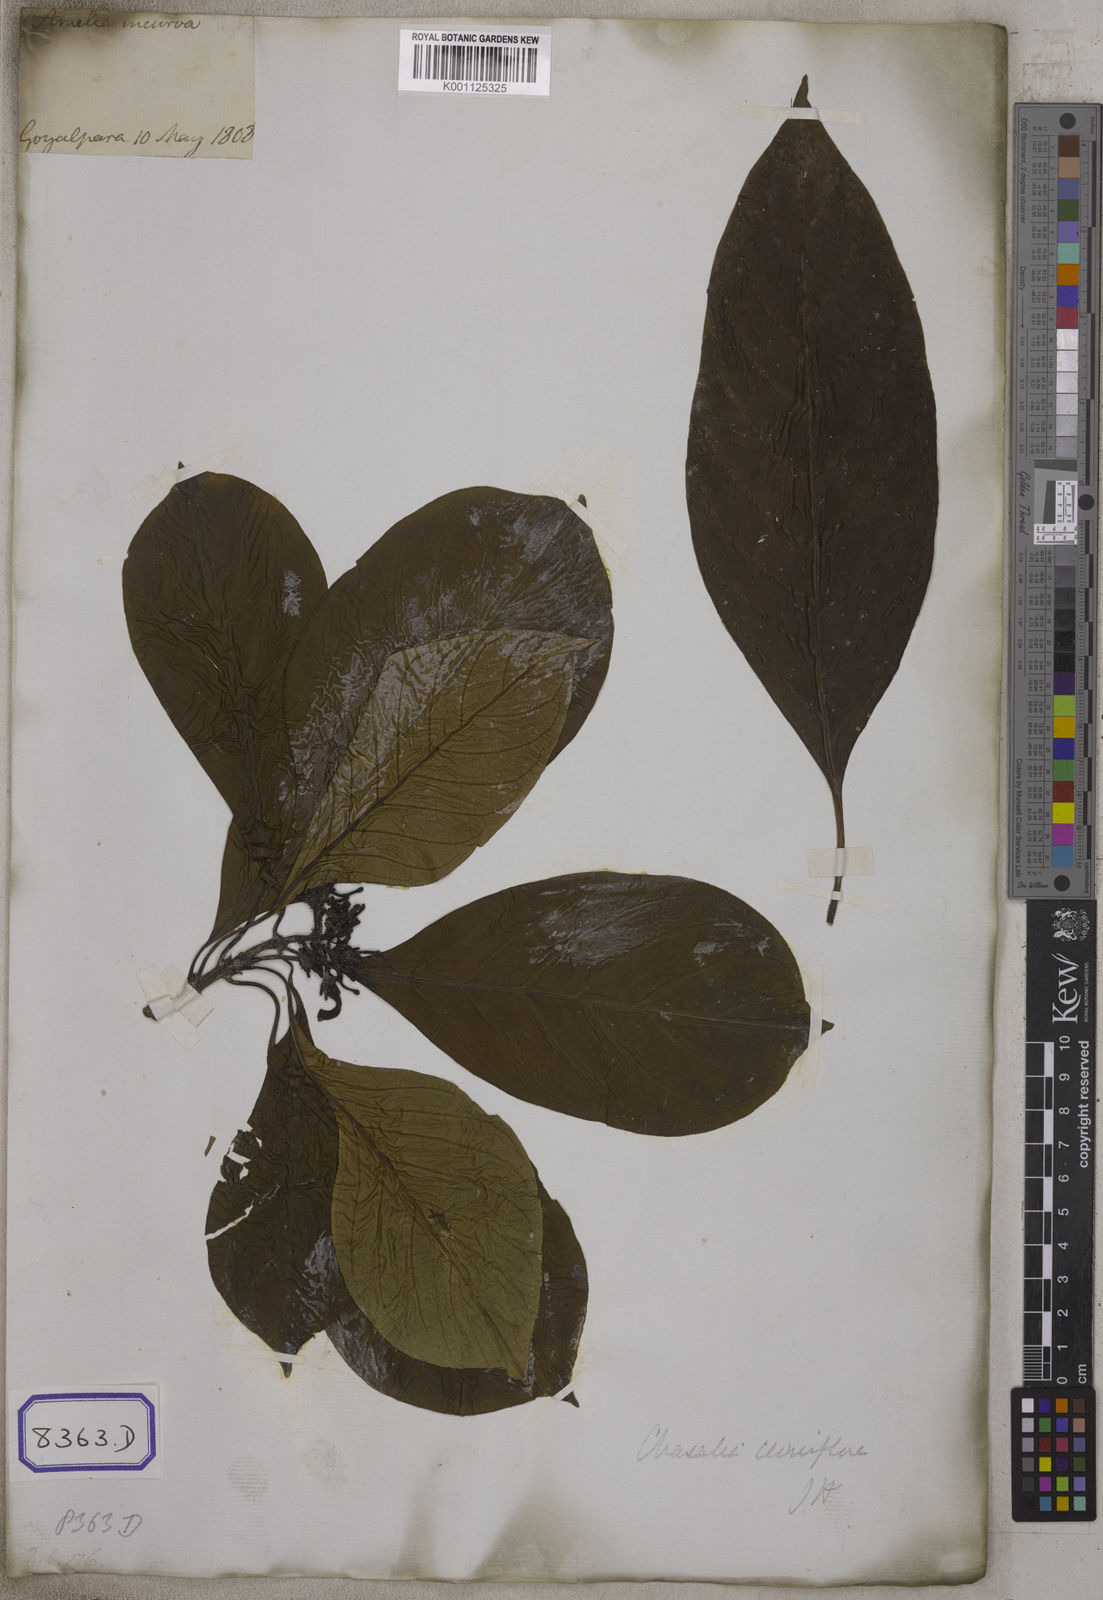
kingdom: Plantae
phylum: Tracheophyta
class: Magnoliopsida
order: Gentianales
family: Rubiaceae
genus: Psychotria
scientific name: Psychotria
